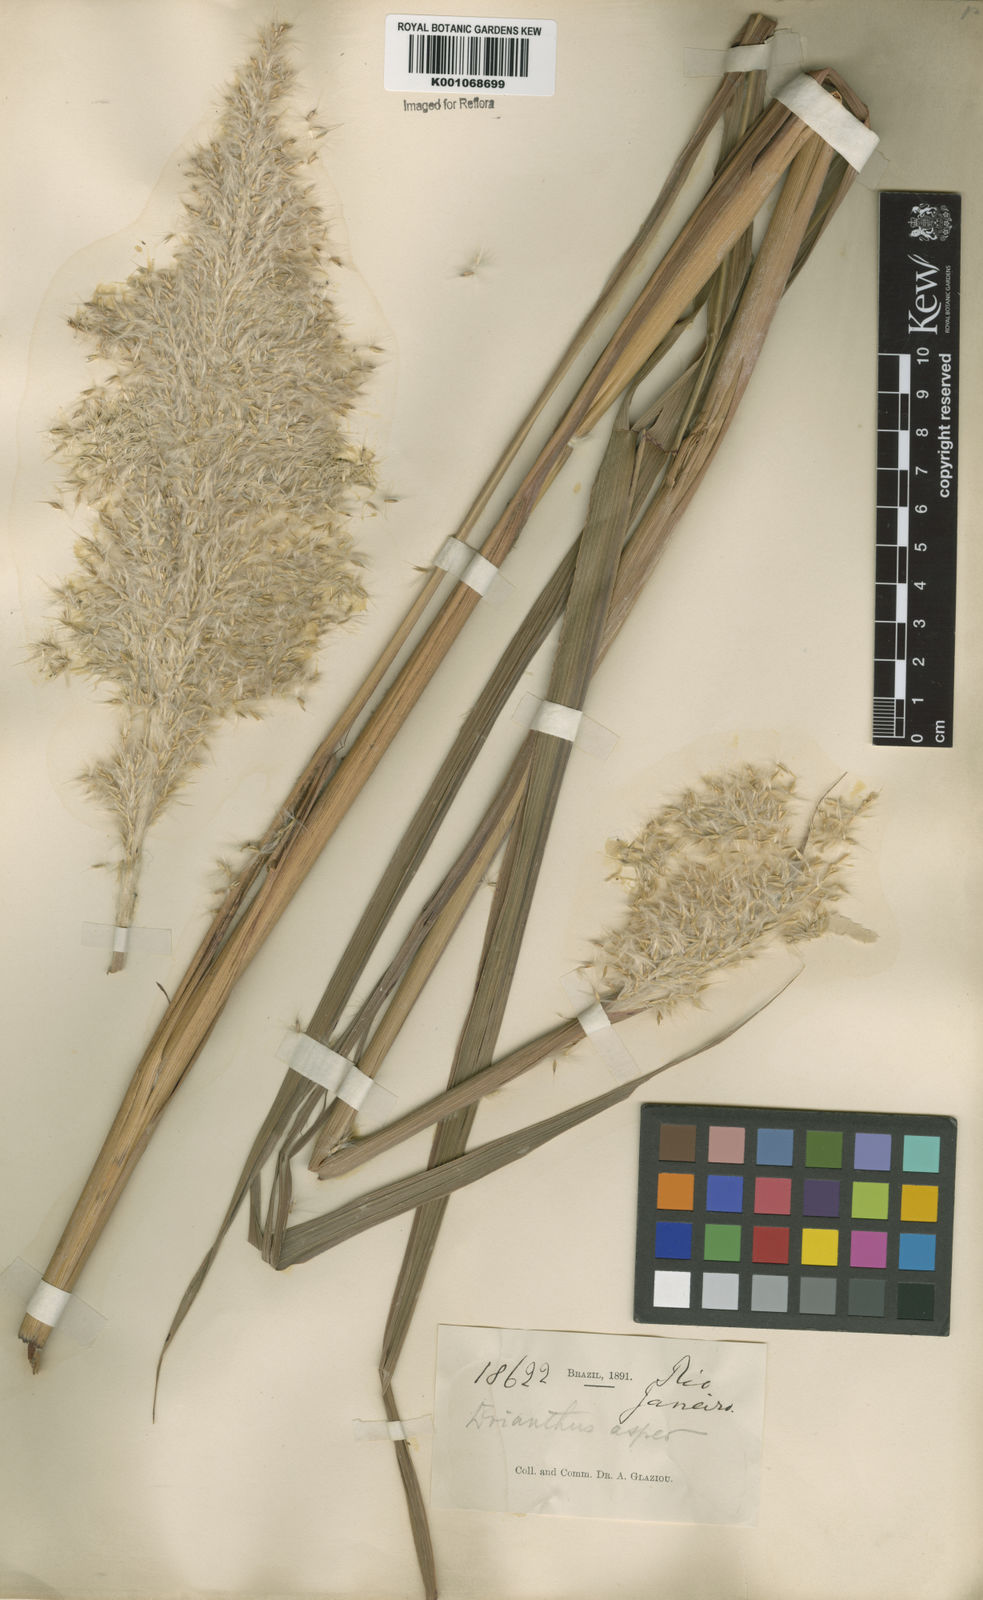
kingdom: Plantae
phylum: Tracheophyta
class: Liliopsida
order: Poales
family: Poaceae
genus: Erianthus
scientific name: Erianthus asper
